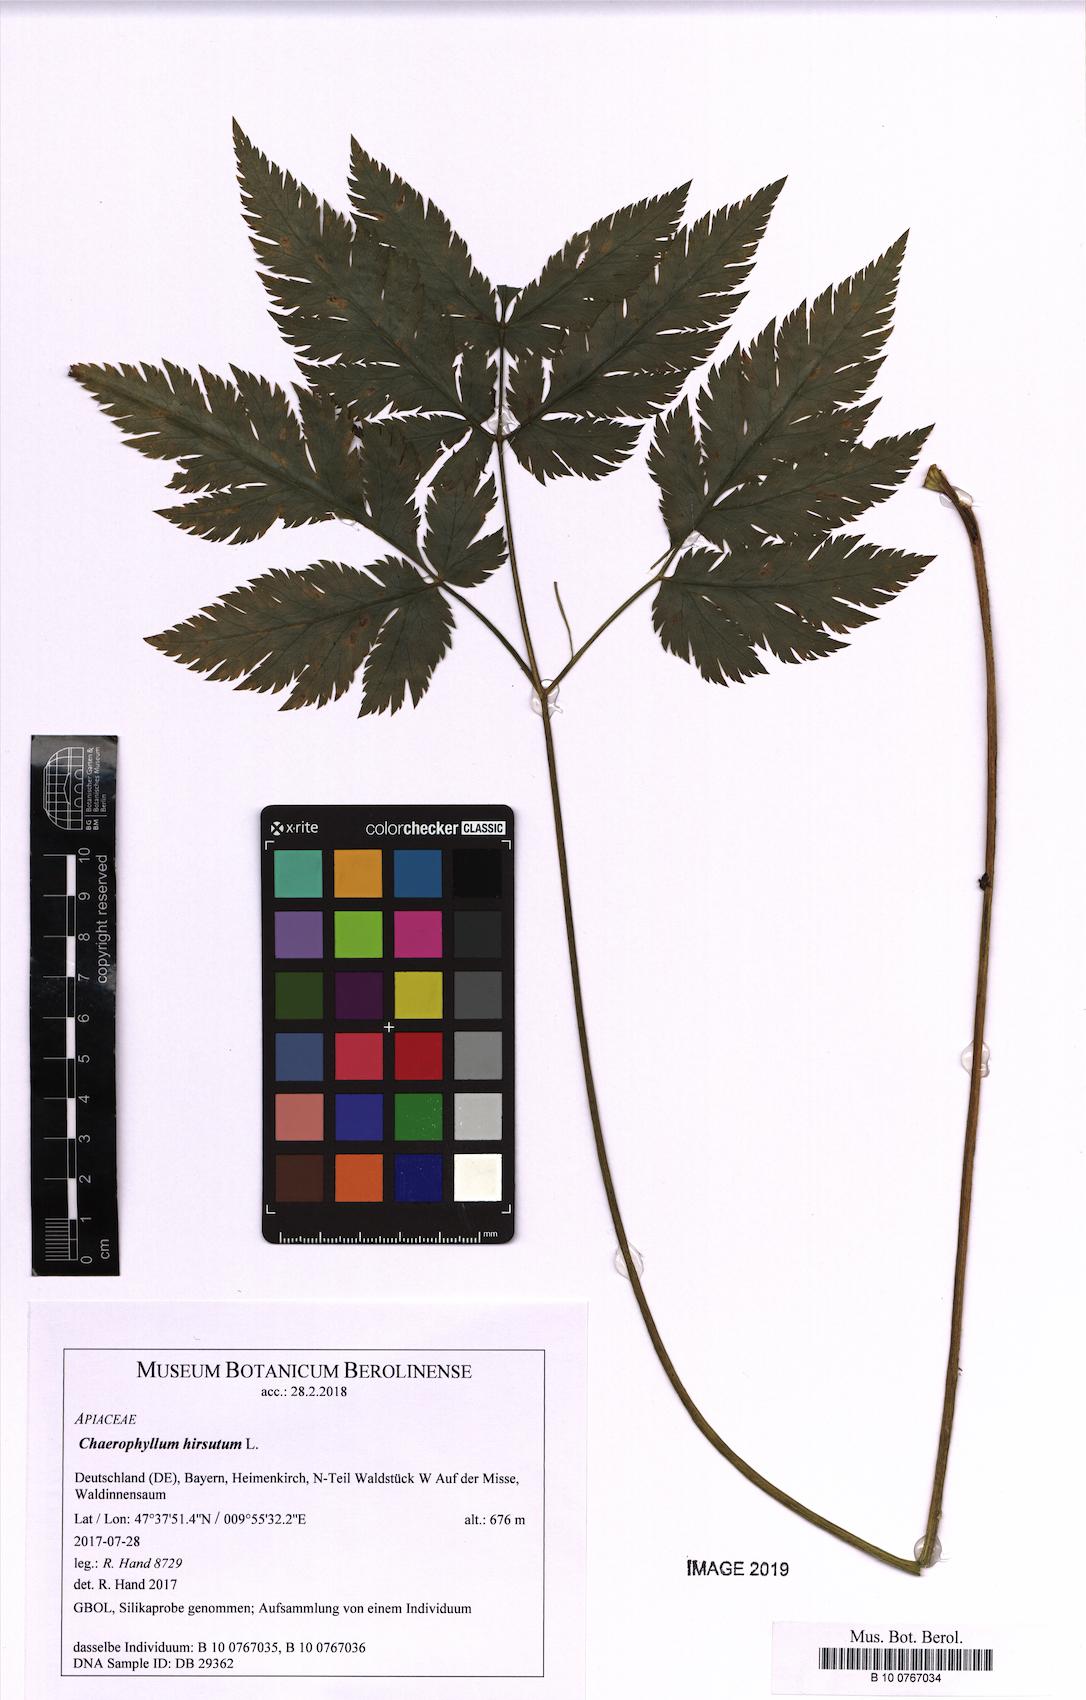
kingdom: Plantae
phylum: Tracheophyta
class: Magnoliopsida
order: Apiales
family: Apiaceae
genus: Chaerophyllum
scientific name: Chaerophyllum hirsutum
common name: Hairy chervil
